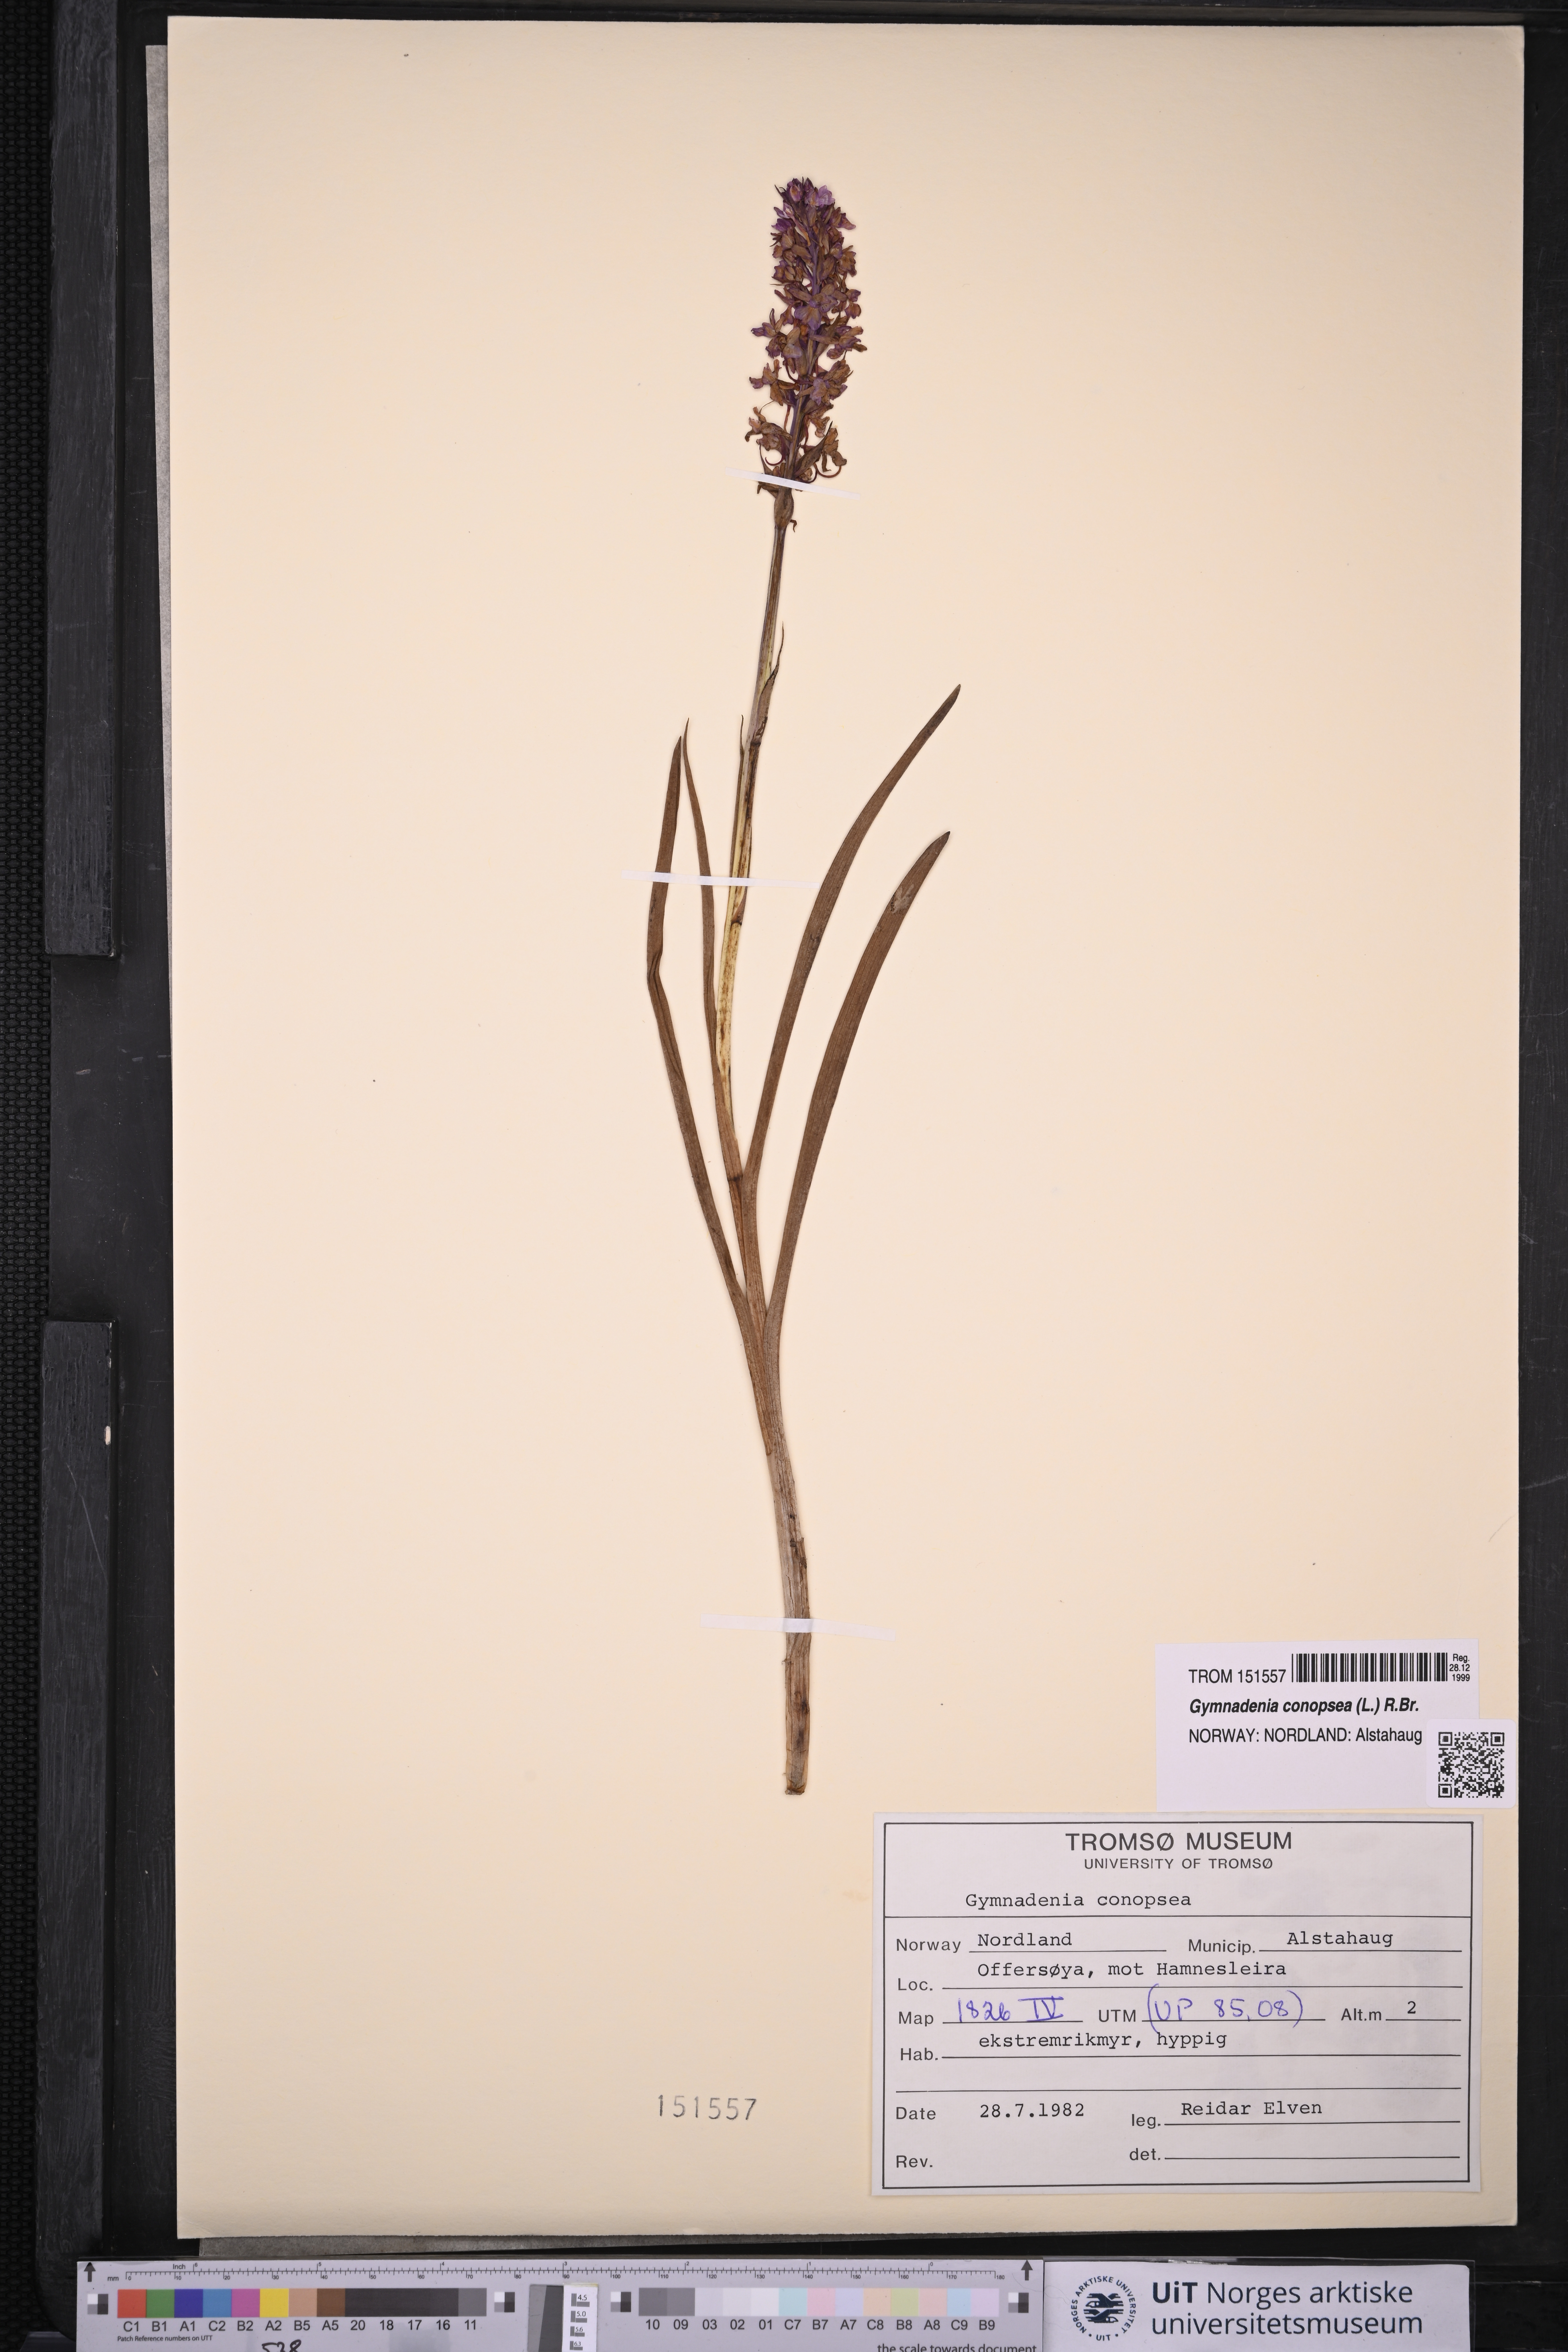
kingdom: Plantae
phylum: Tracheophyta
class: Liliopsida
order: Asparagales
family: Orchidaceae
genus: Gymnadenia
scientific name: Gymnadenia conopsea
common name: Fragrant orchid
